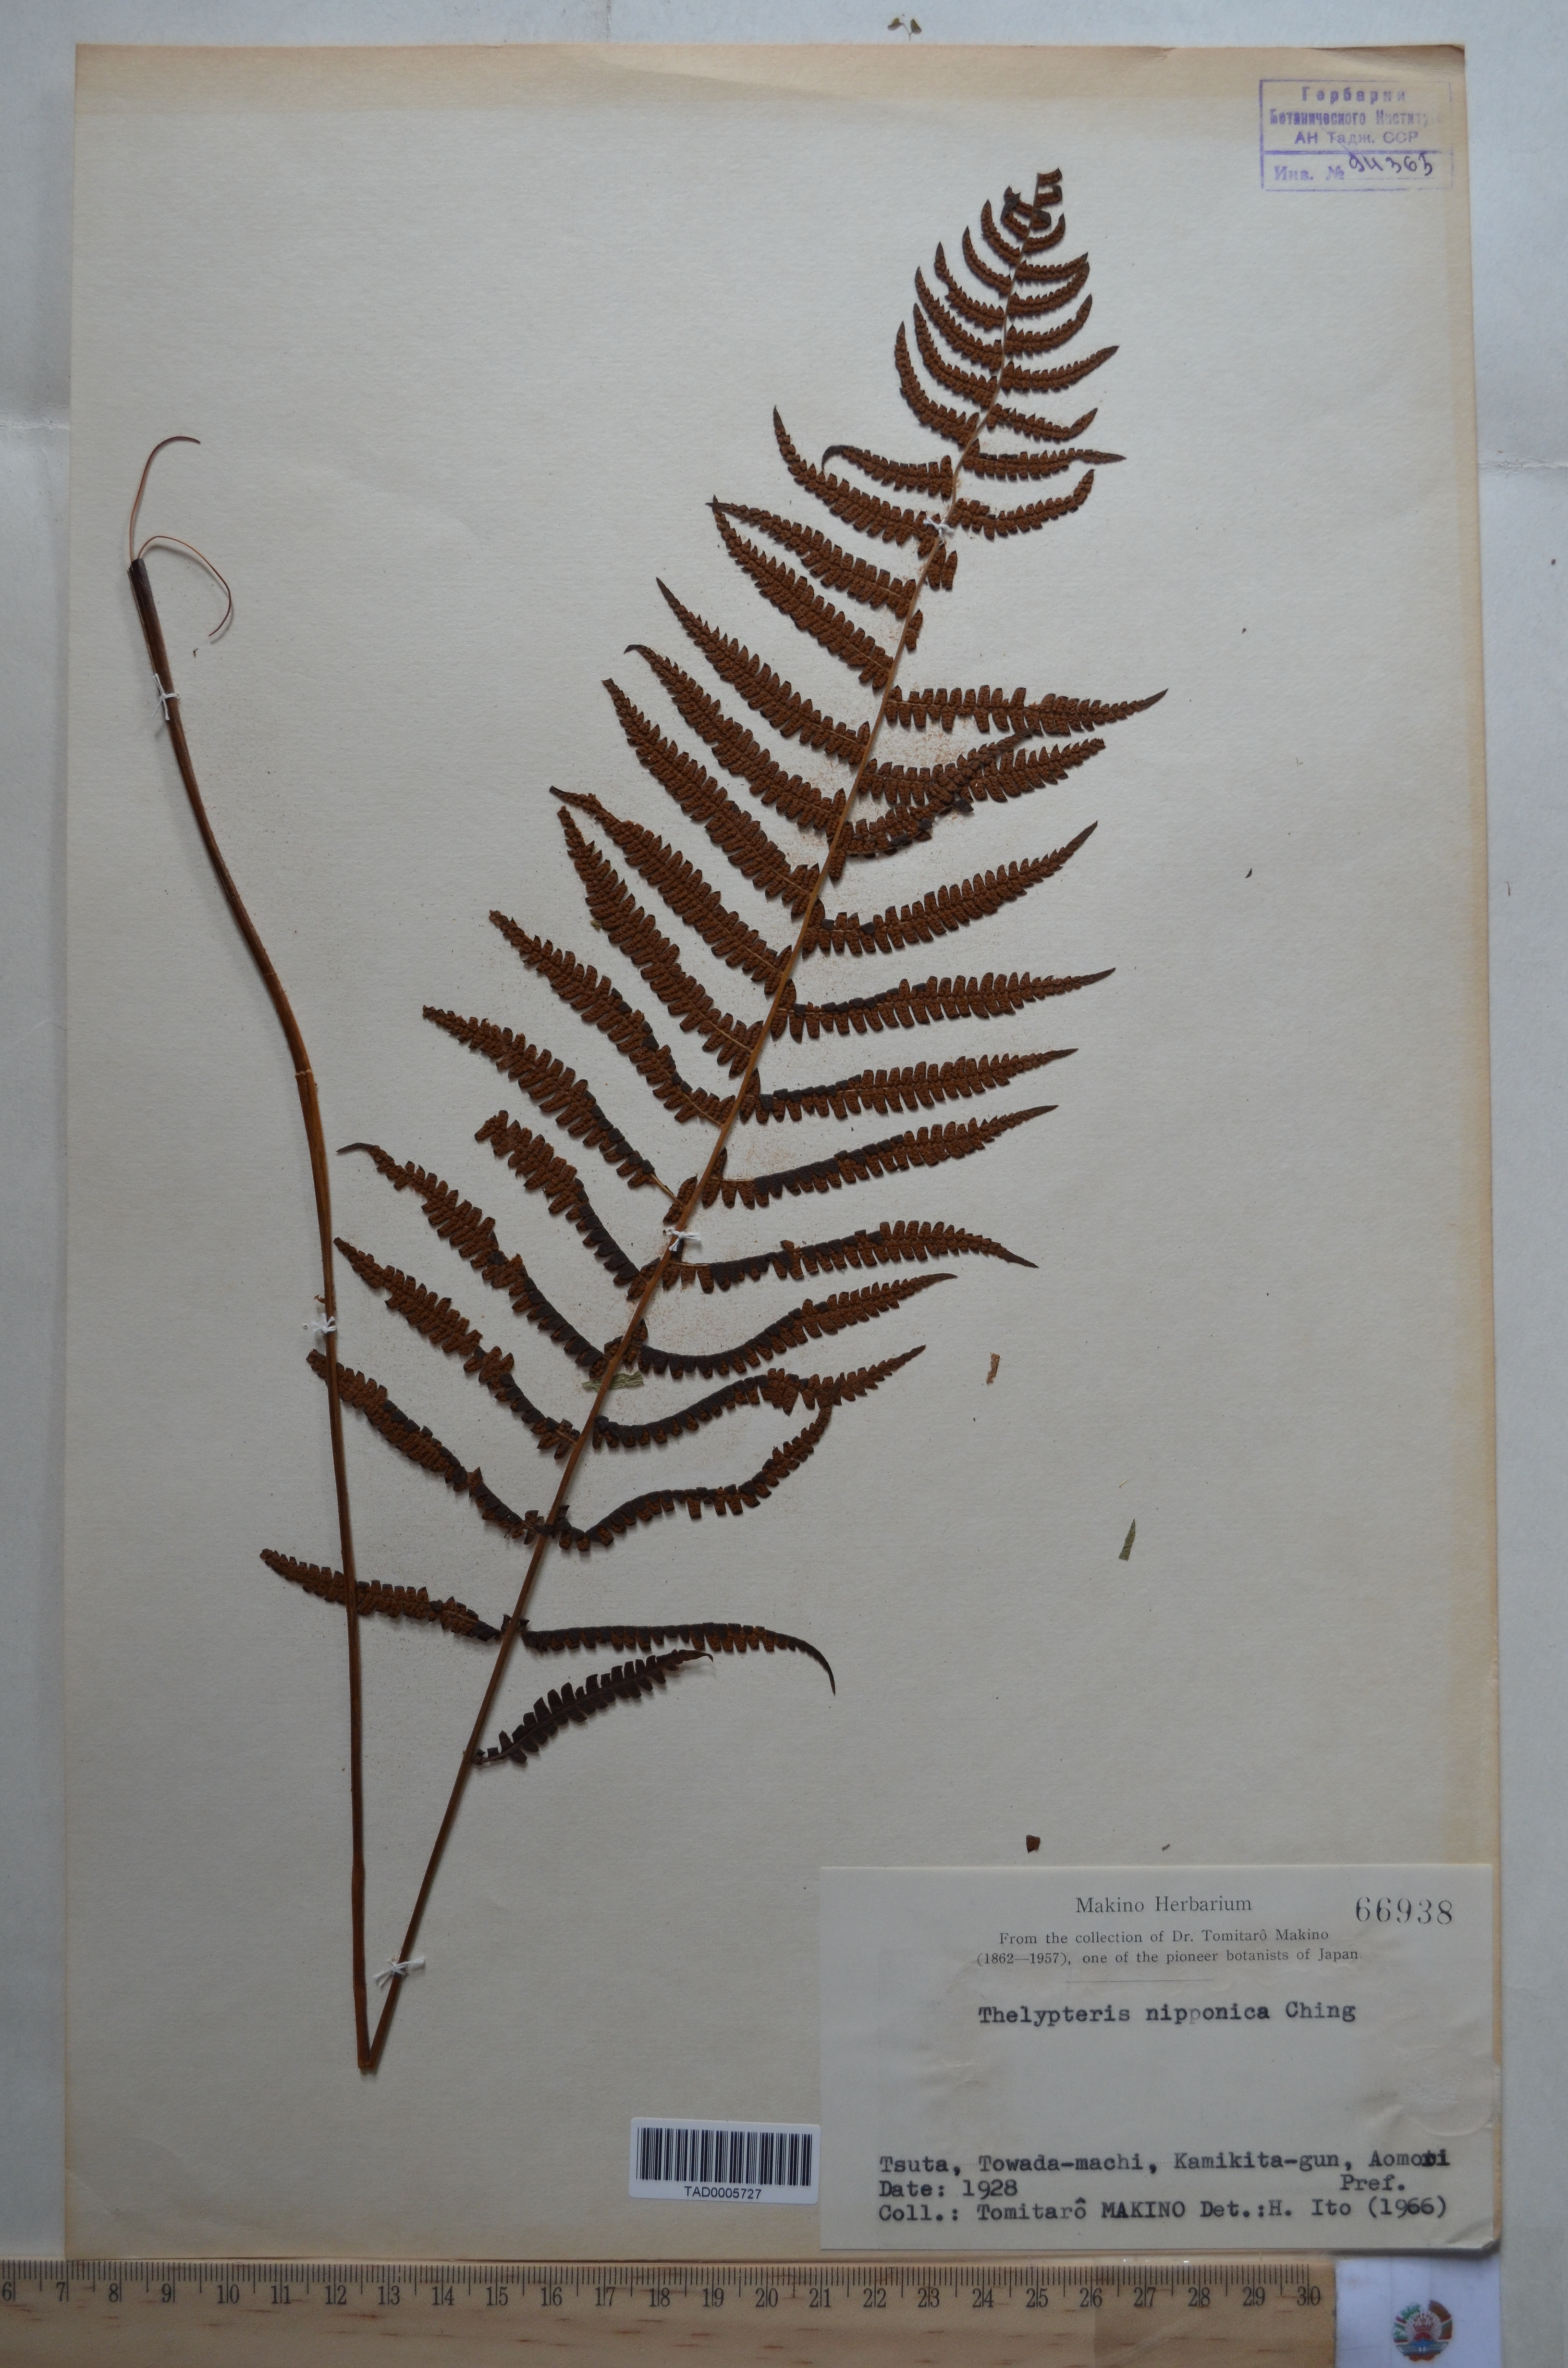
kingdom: Plantae
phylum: Tracheophyta
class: Polypodiopsida
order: Polypodiales
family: Thelypteridaceae
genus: Coryphopteris
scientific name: Coryphopteris nipponica
